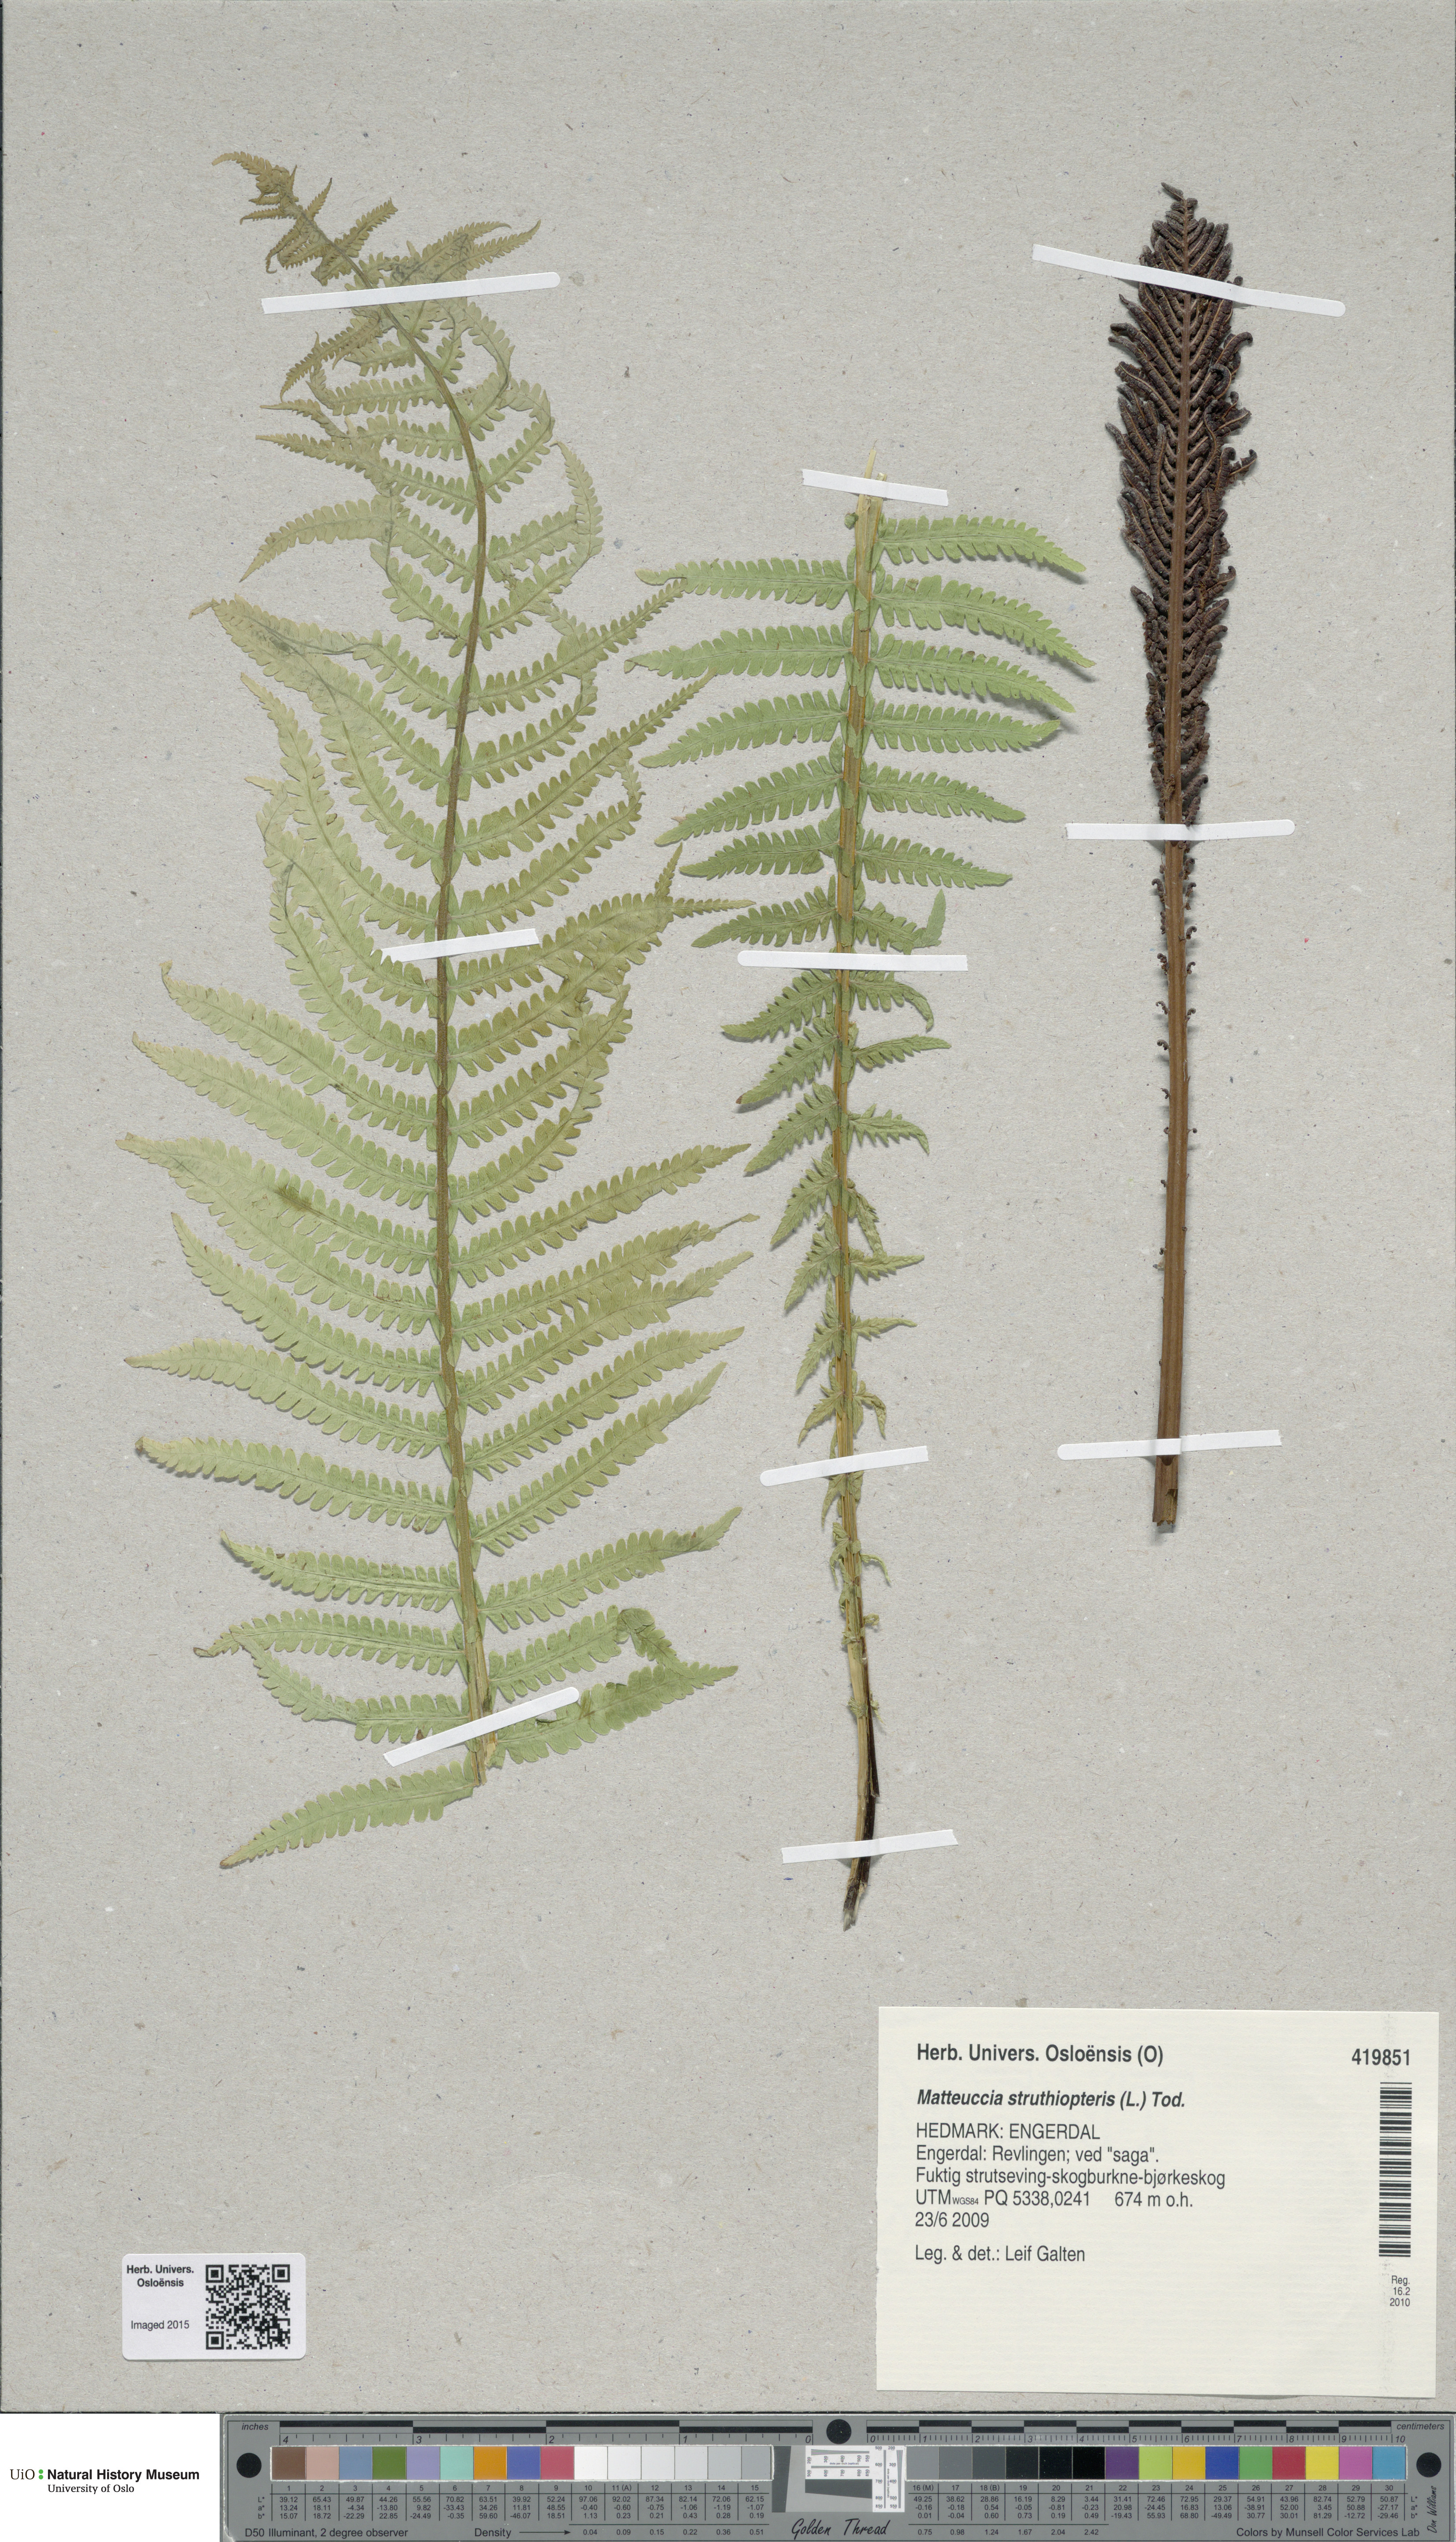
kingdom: Plantae
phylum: Tracheophyta
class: Polypodiopsida
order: Polypodiales
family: Onocleaceae
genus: Matteuccia
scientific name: Matteuccia struthiopteris
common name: Ostrich fern
